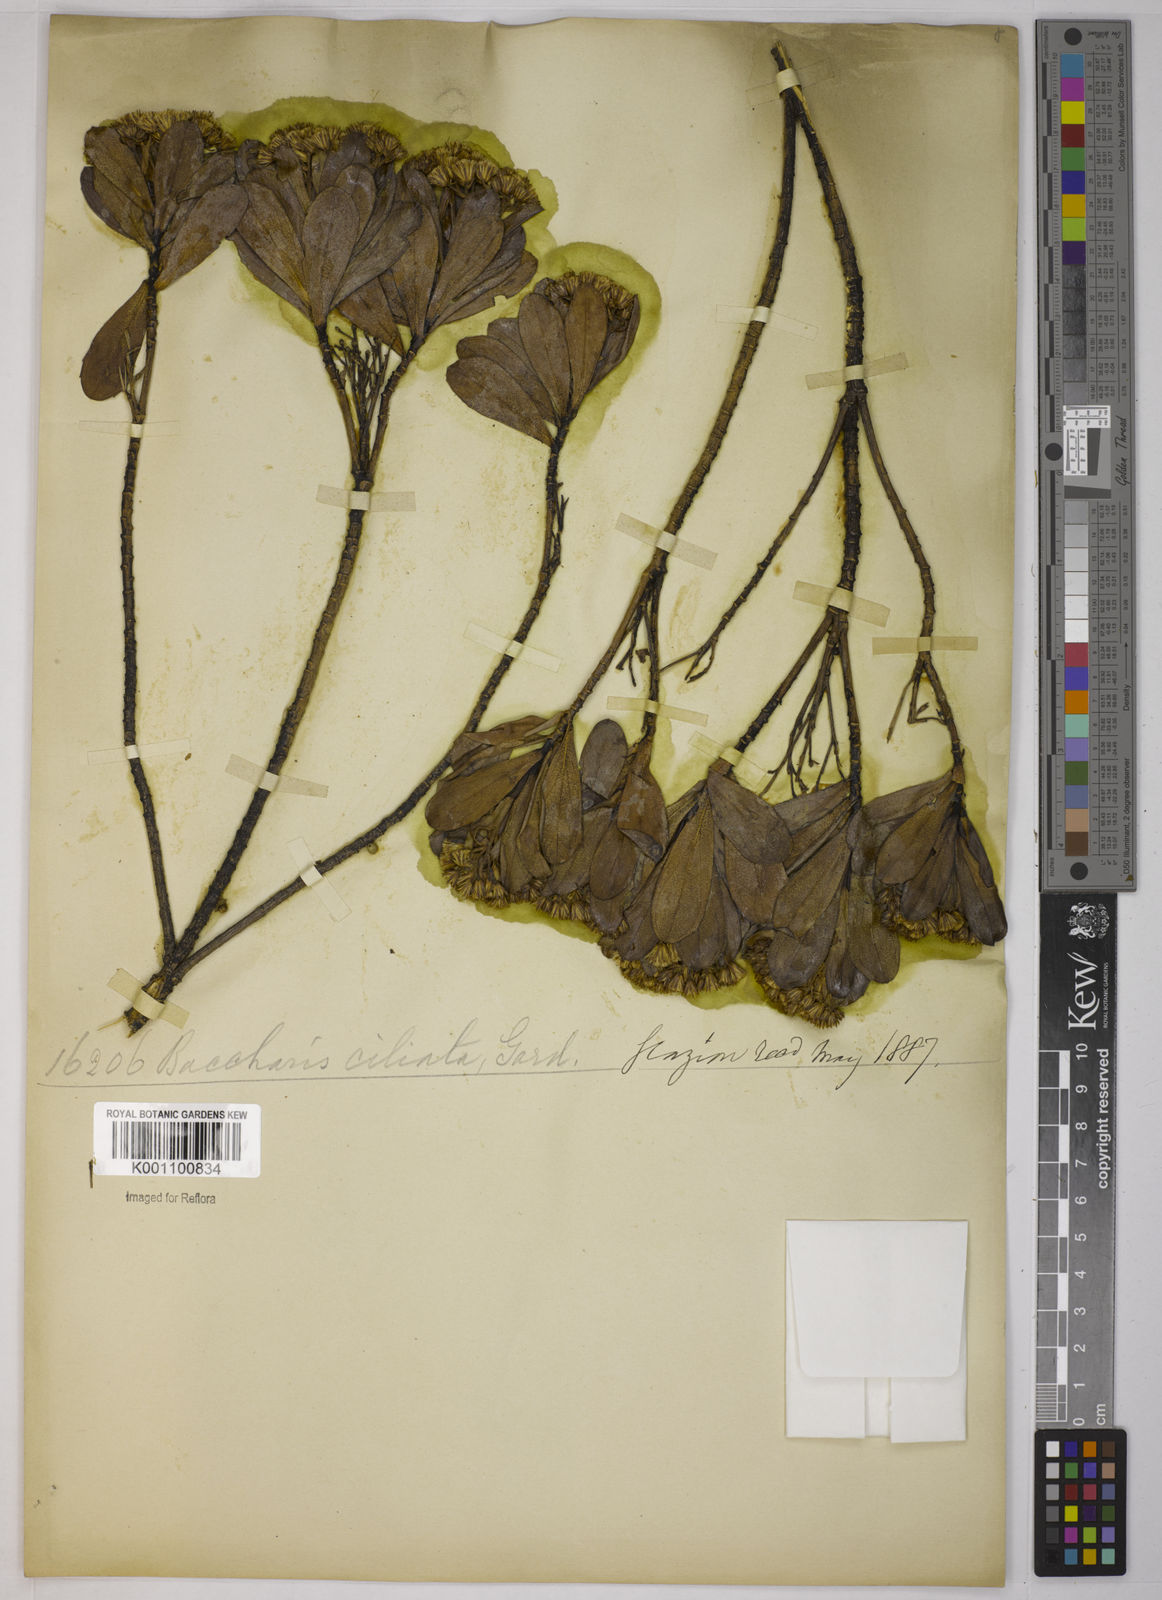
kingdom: Plantae
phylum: Tracheophyta
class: Magnoliopsida
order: Asterales
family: Asteraceae
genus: Baccharis
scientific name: Baccharis ciliata
